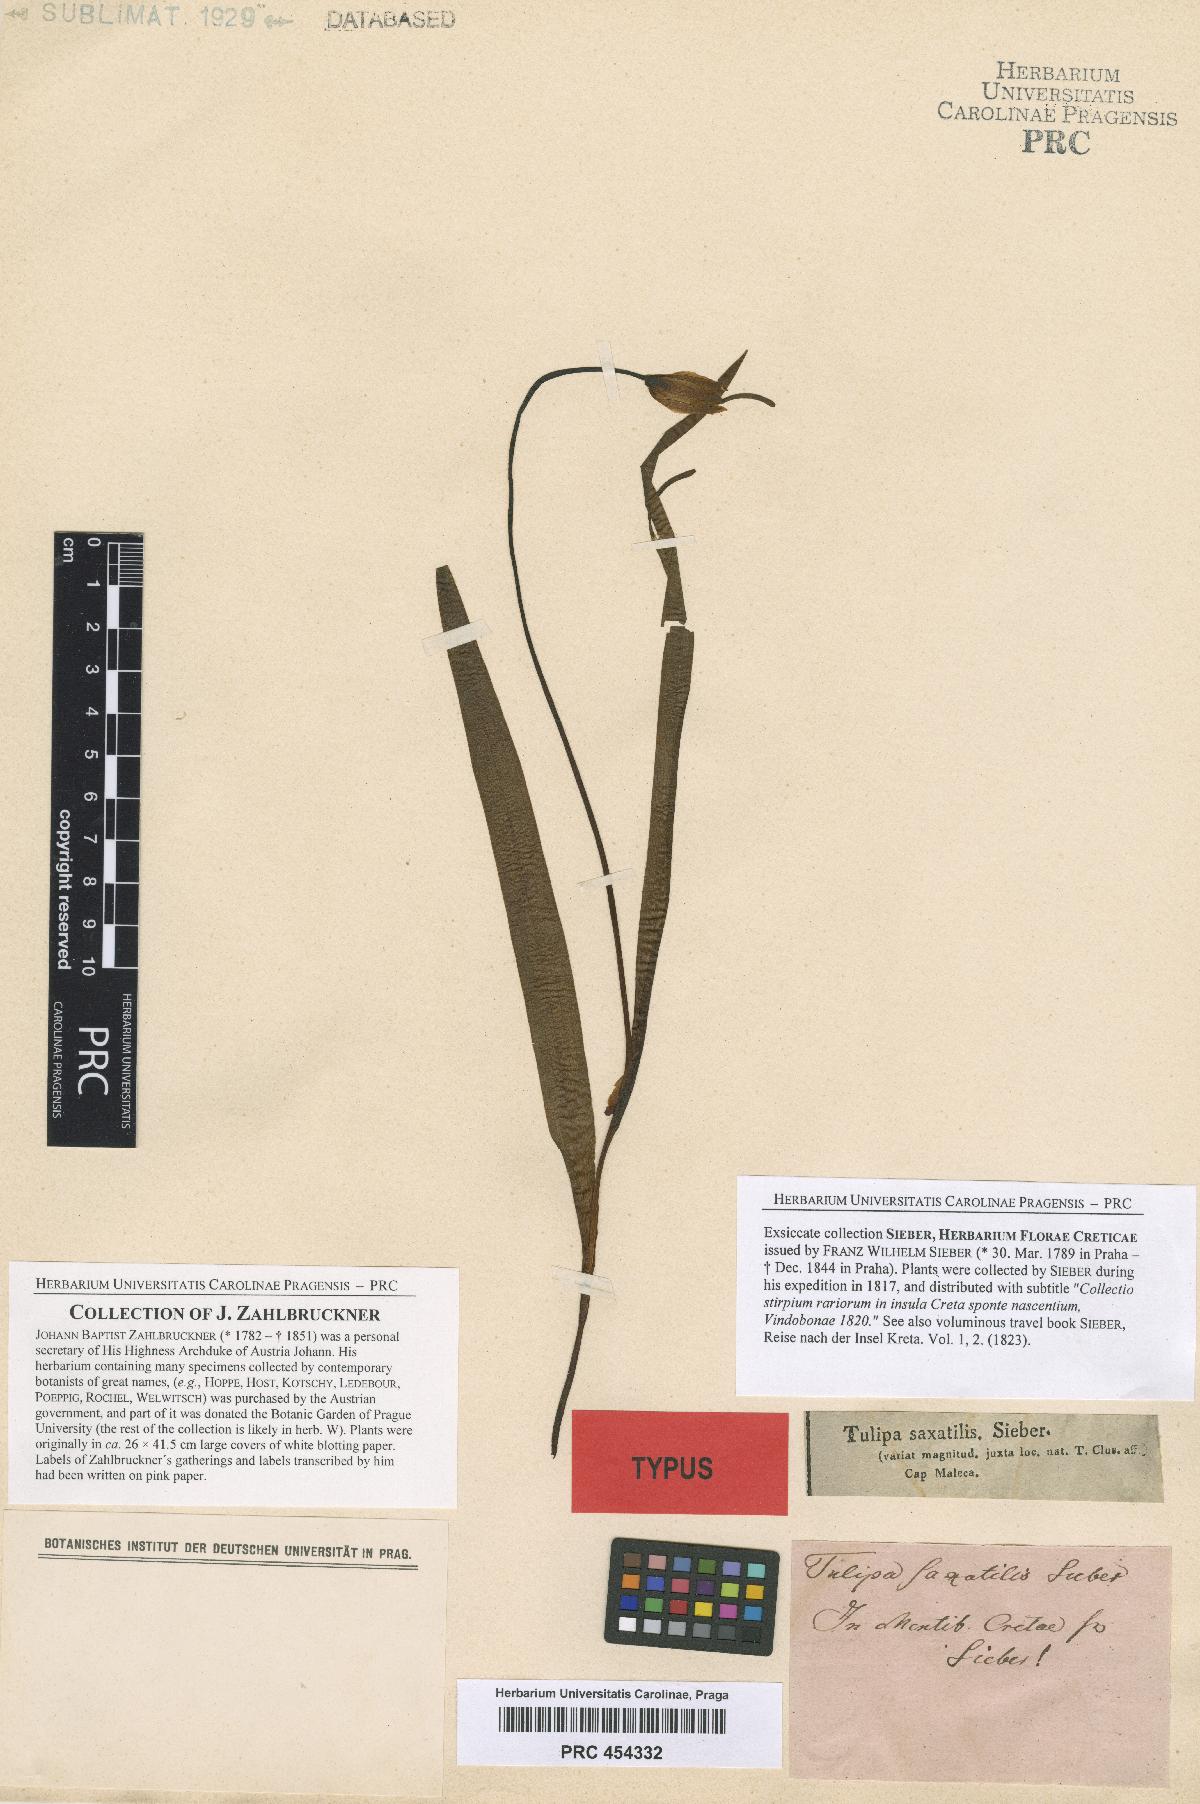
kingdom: Plantae
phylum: Tracheophyta
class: Liliopsida
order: Liliales
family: Liliaceae
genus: Tulipa
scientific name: Tulipa saxatilis
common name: Cretan tulip
